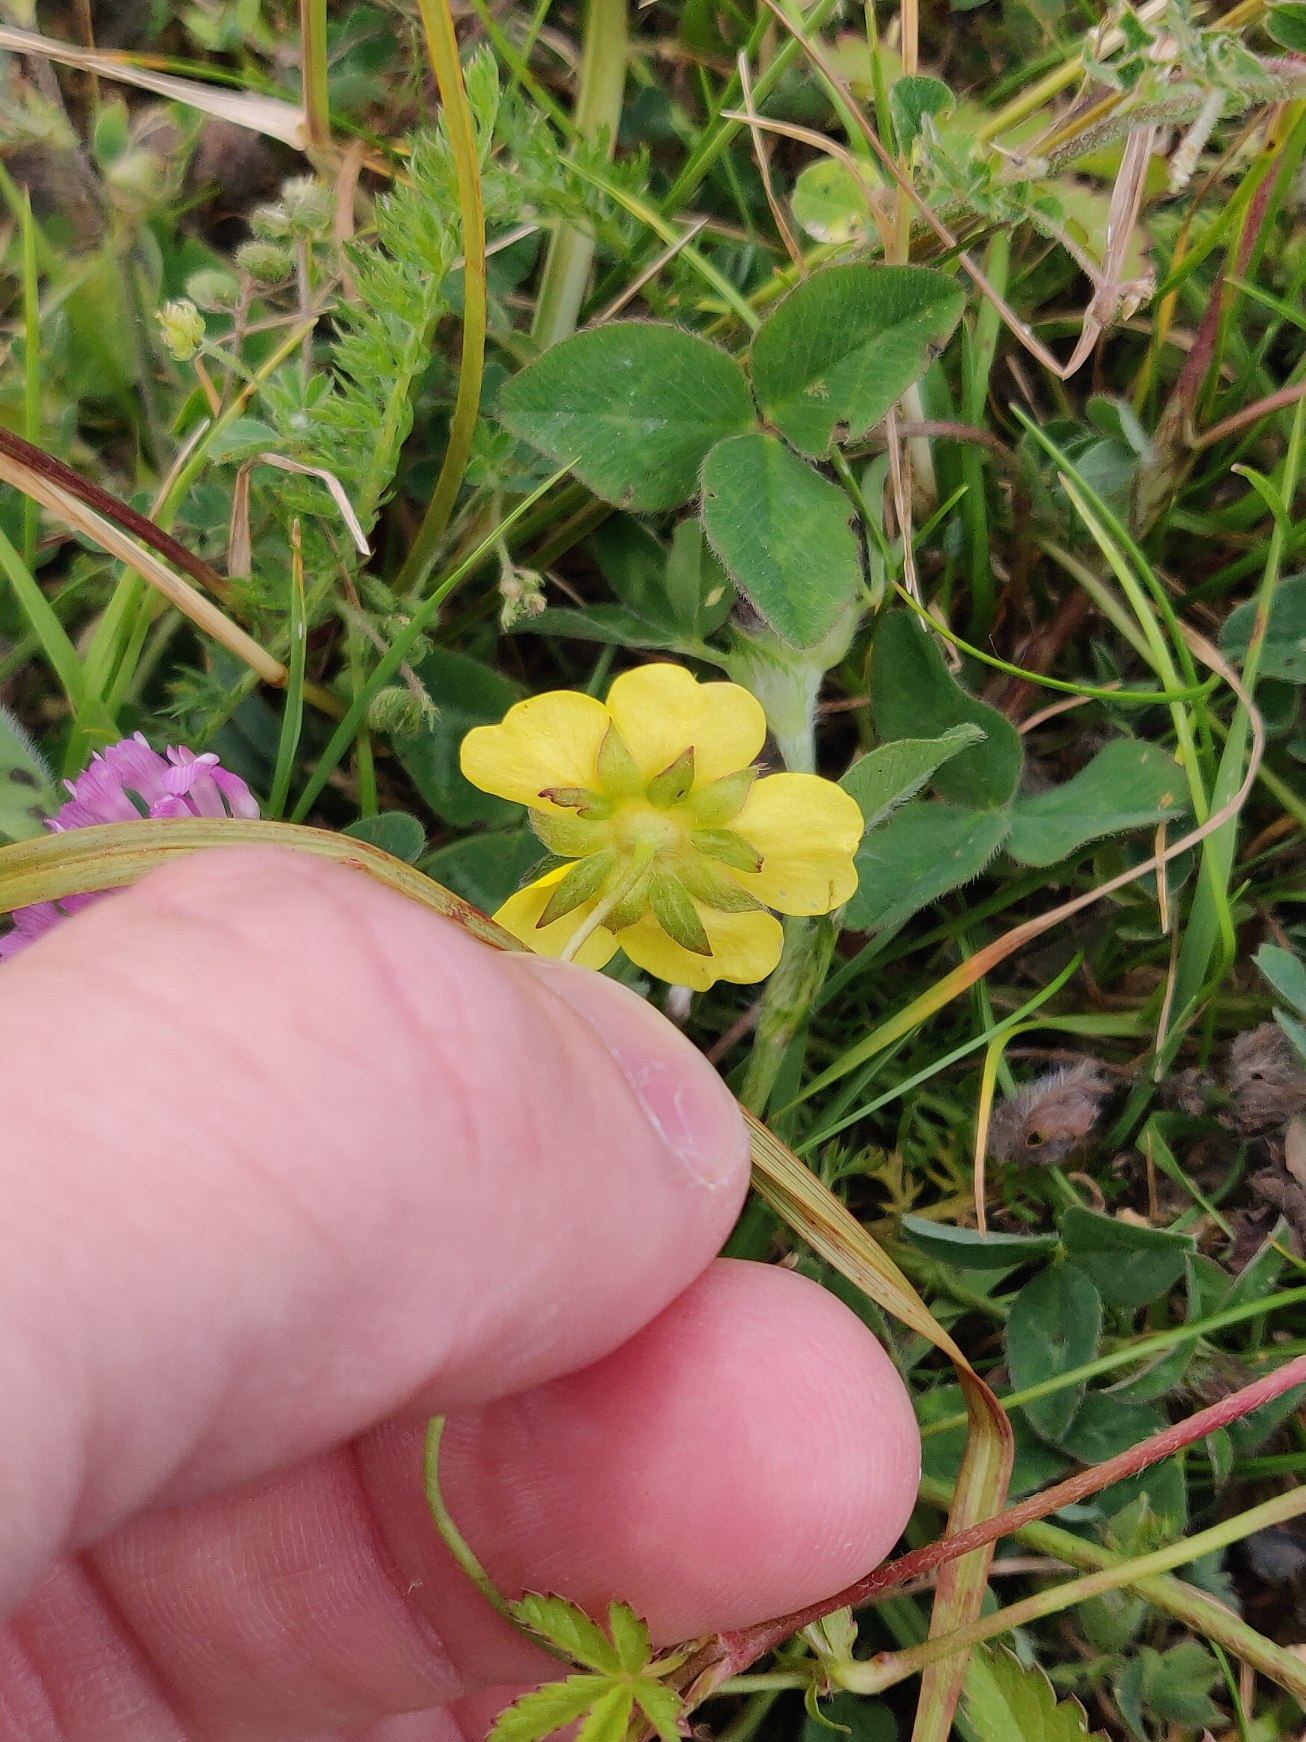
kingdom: Plantae
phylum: Tracheophyta
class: Magnoliopsida
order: Rosales
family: Rosaceae
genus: Potentilla
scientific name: Potentilla reptans
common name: Krybende potentil
